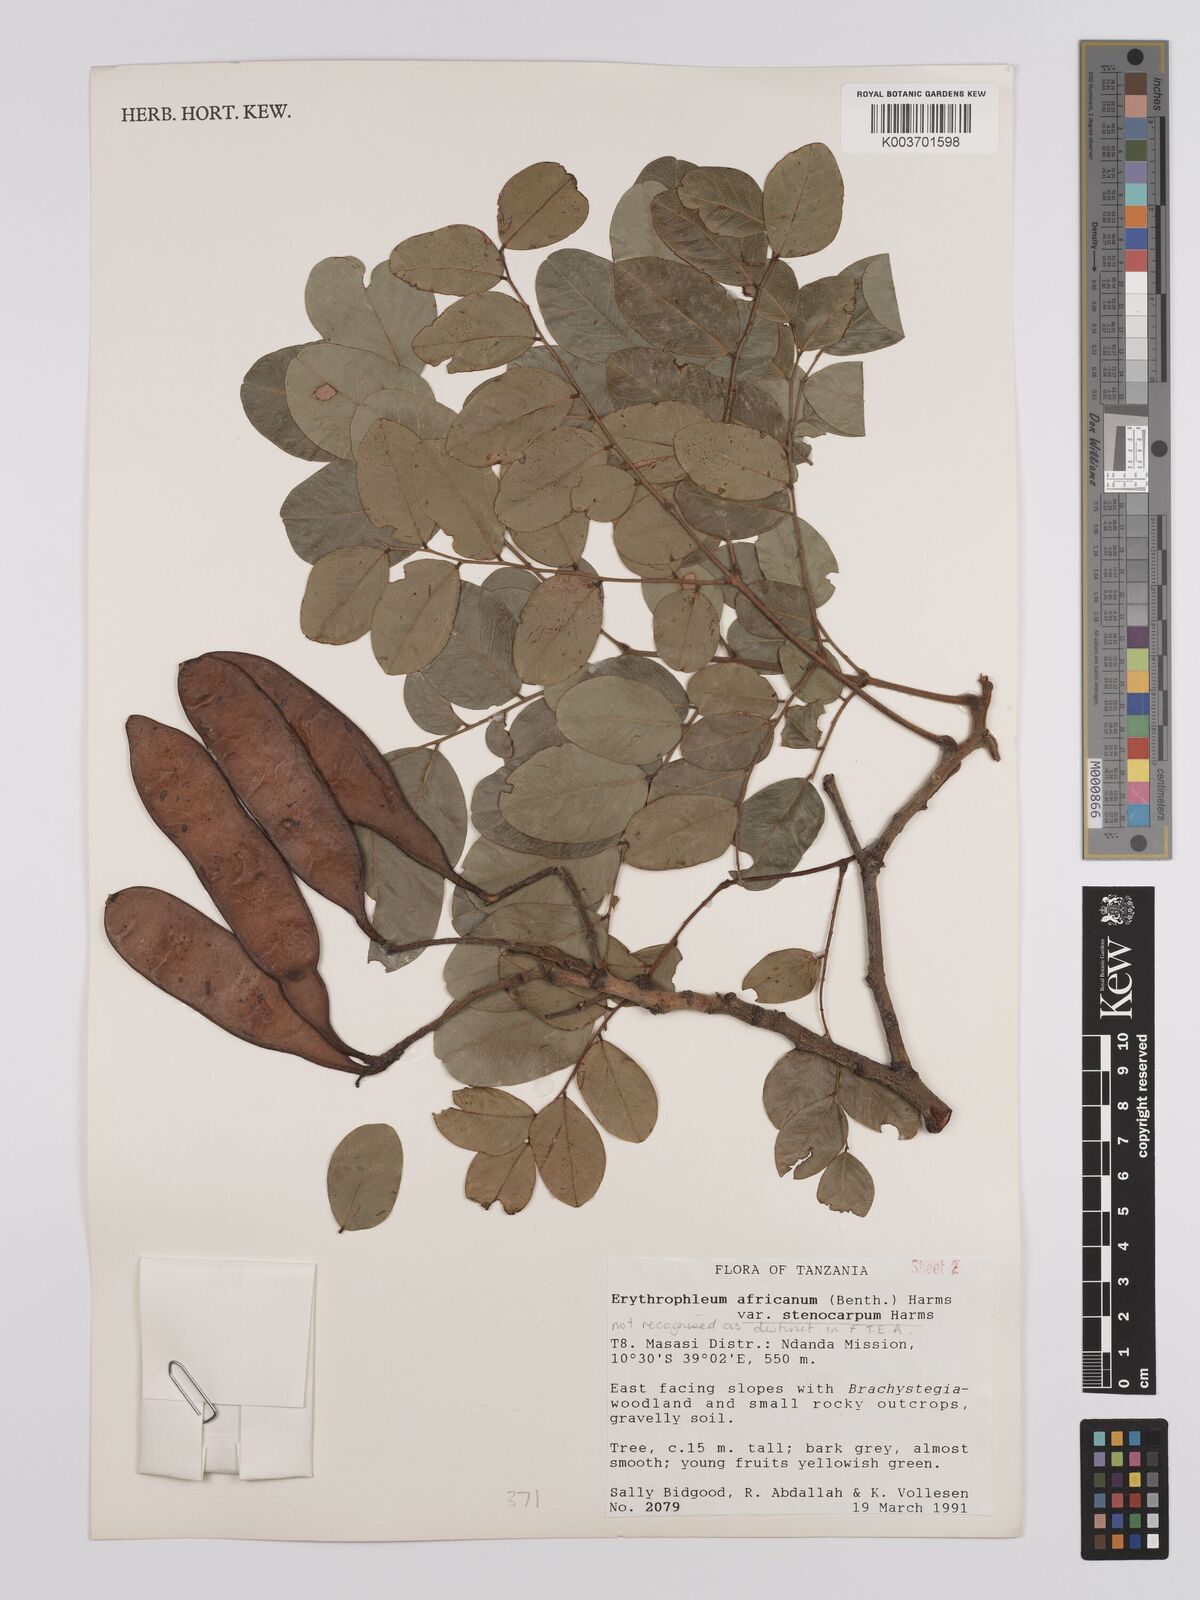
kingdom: Plantae
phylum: Tracheophyta
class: Magnoliopsida
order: Fabales
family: Fabaceae
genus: Erythrophleum
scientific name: Erythrophleum africanum
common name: African blackwood
